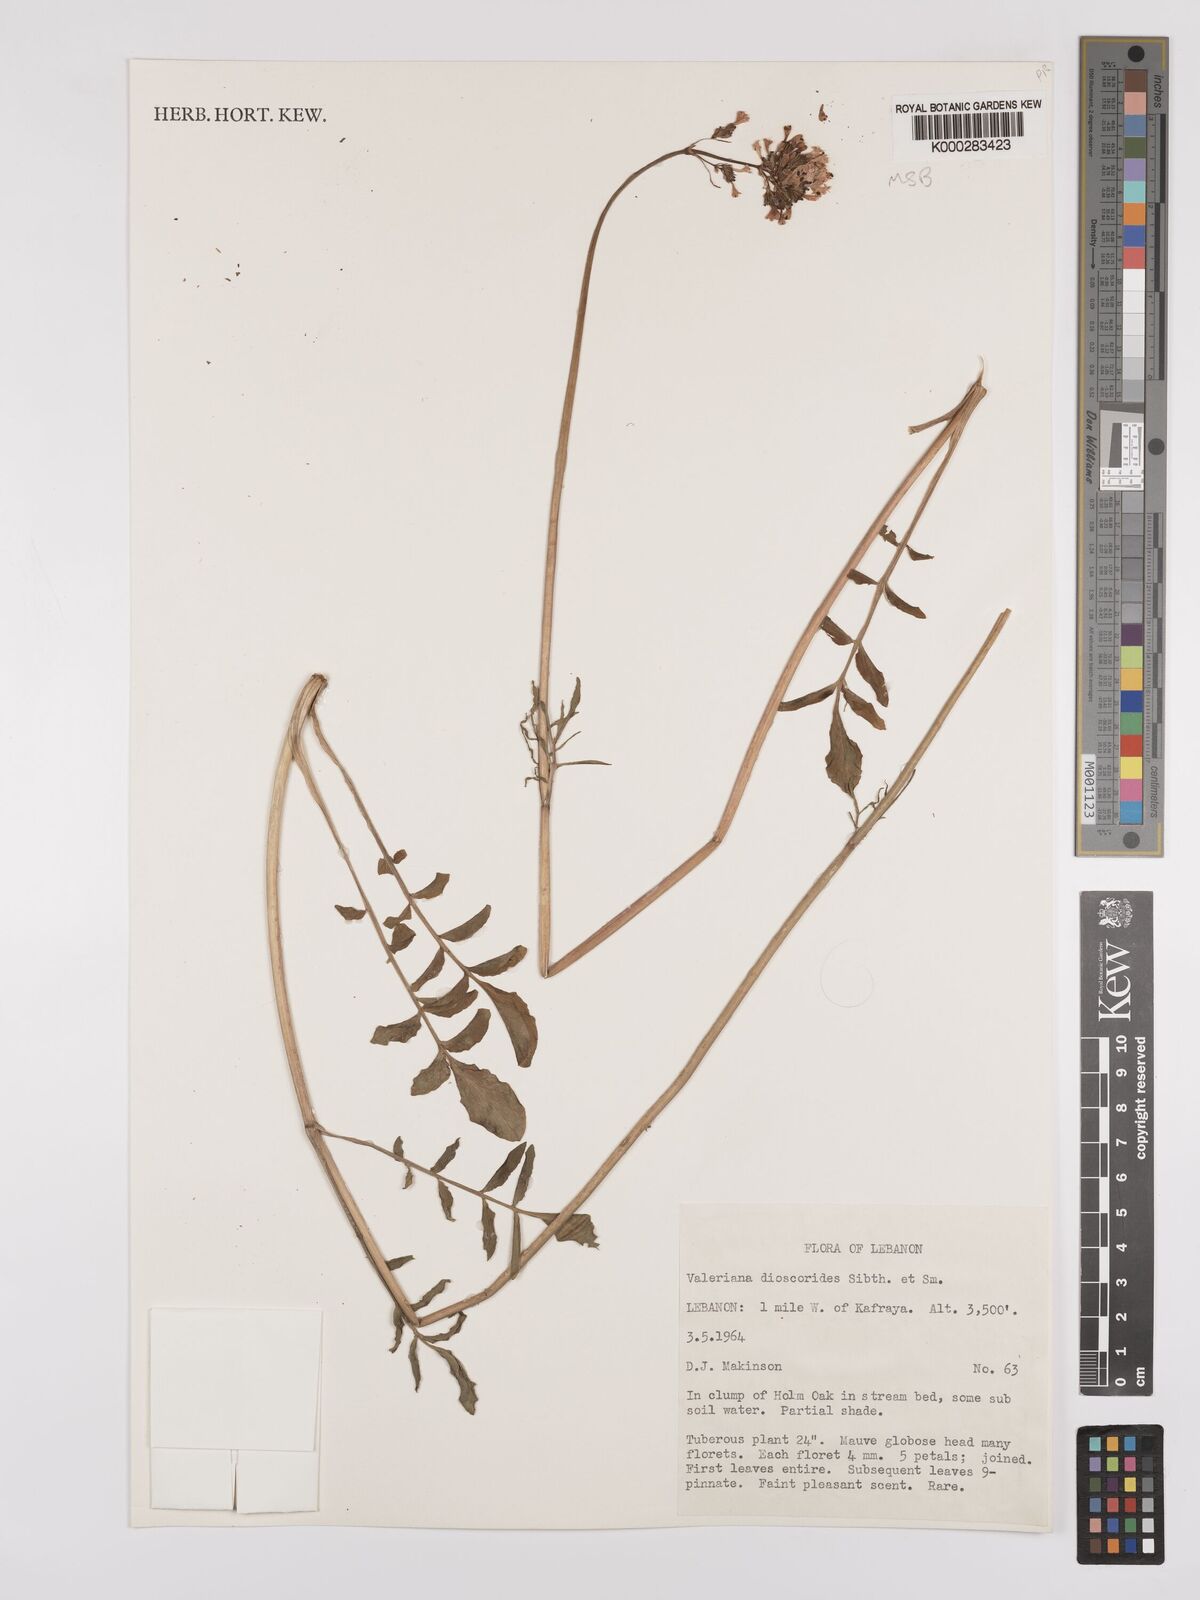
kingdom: Plantae
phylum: Tracheophyta
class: Magnoliopsida
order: Dipsacales
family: Caprifoliaceae
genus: Valeriana
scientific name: Valeriana dioscoridis
